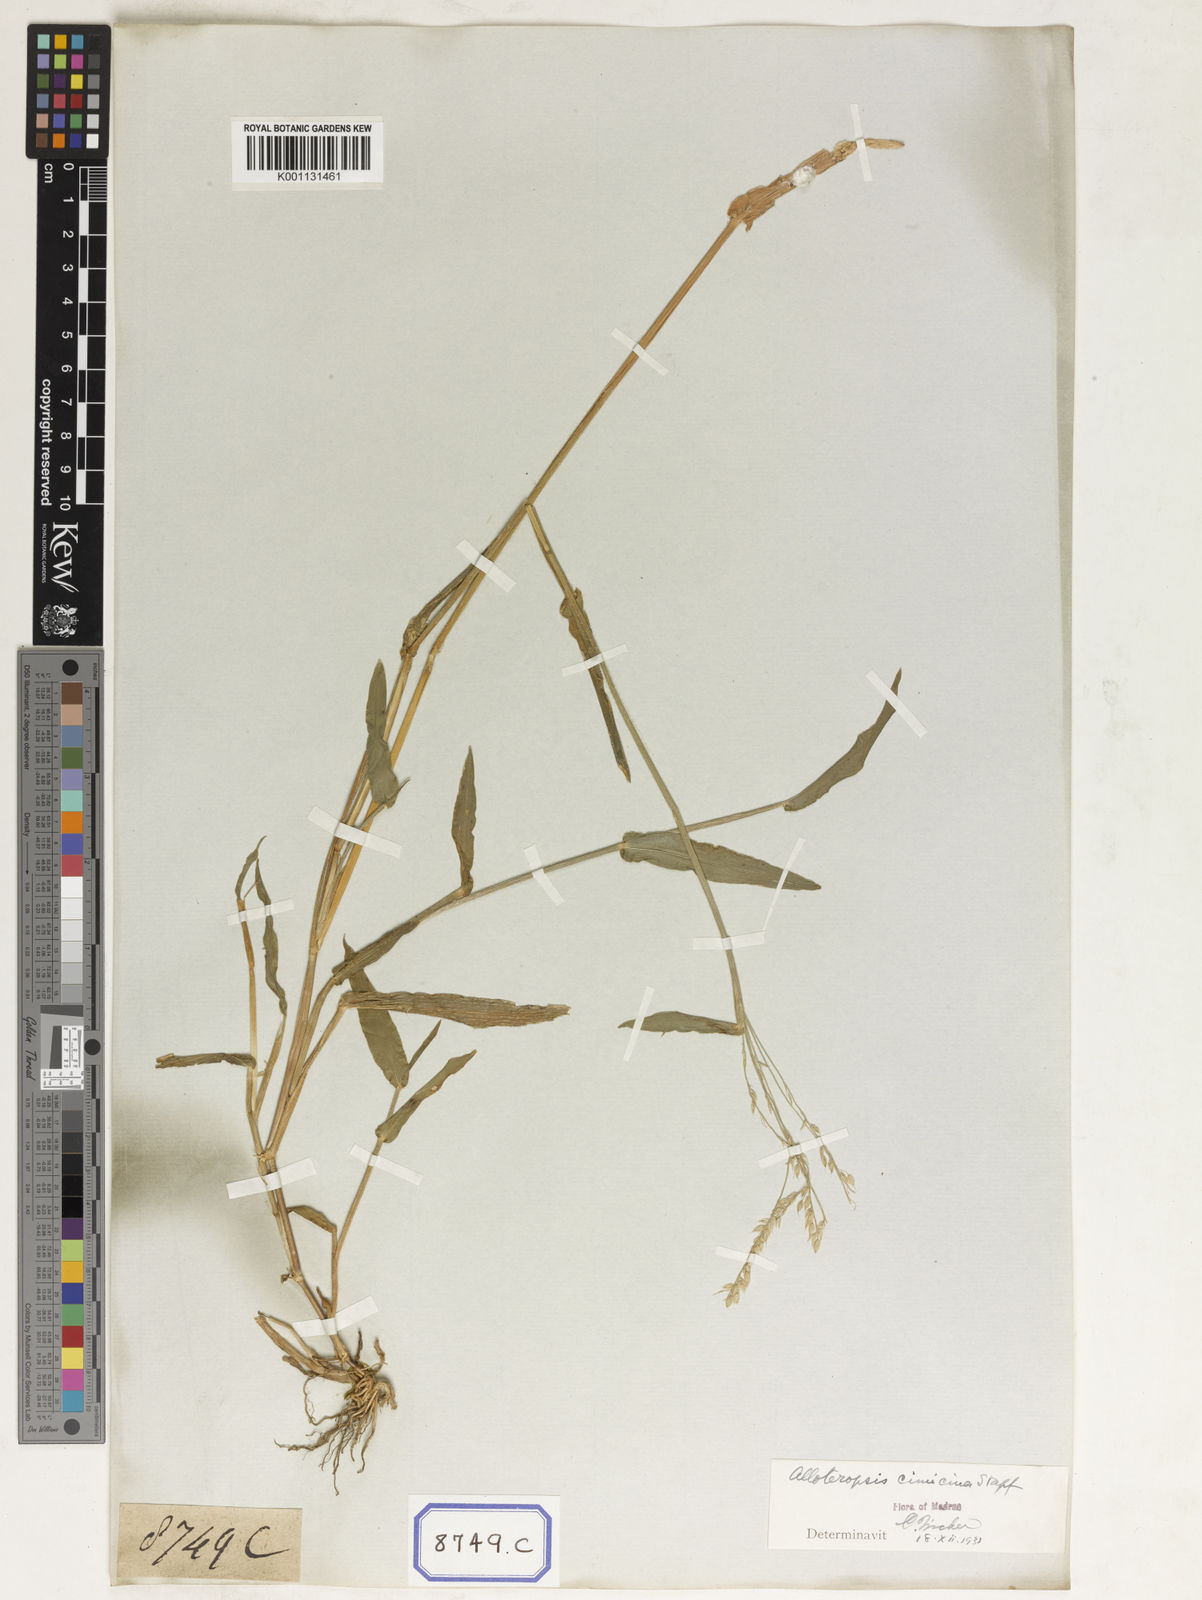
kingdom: Plantae
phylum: Tracheophyta
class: Liliopsida
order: Poales
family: Poaceae
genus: Alloteropsis
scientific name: Alloteropsis
